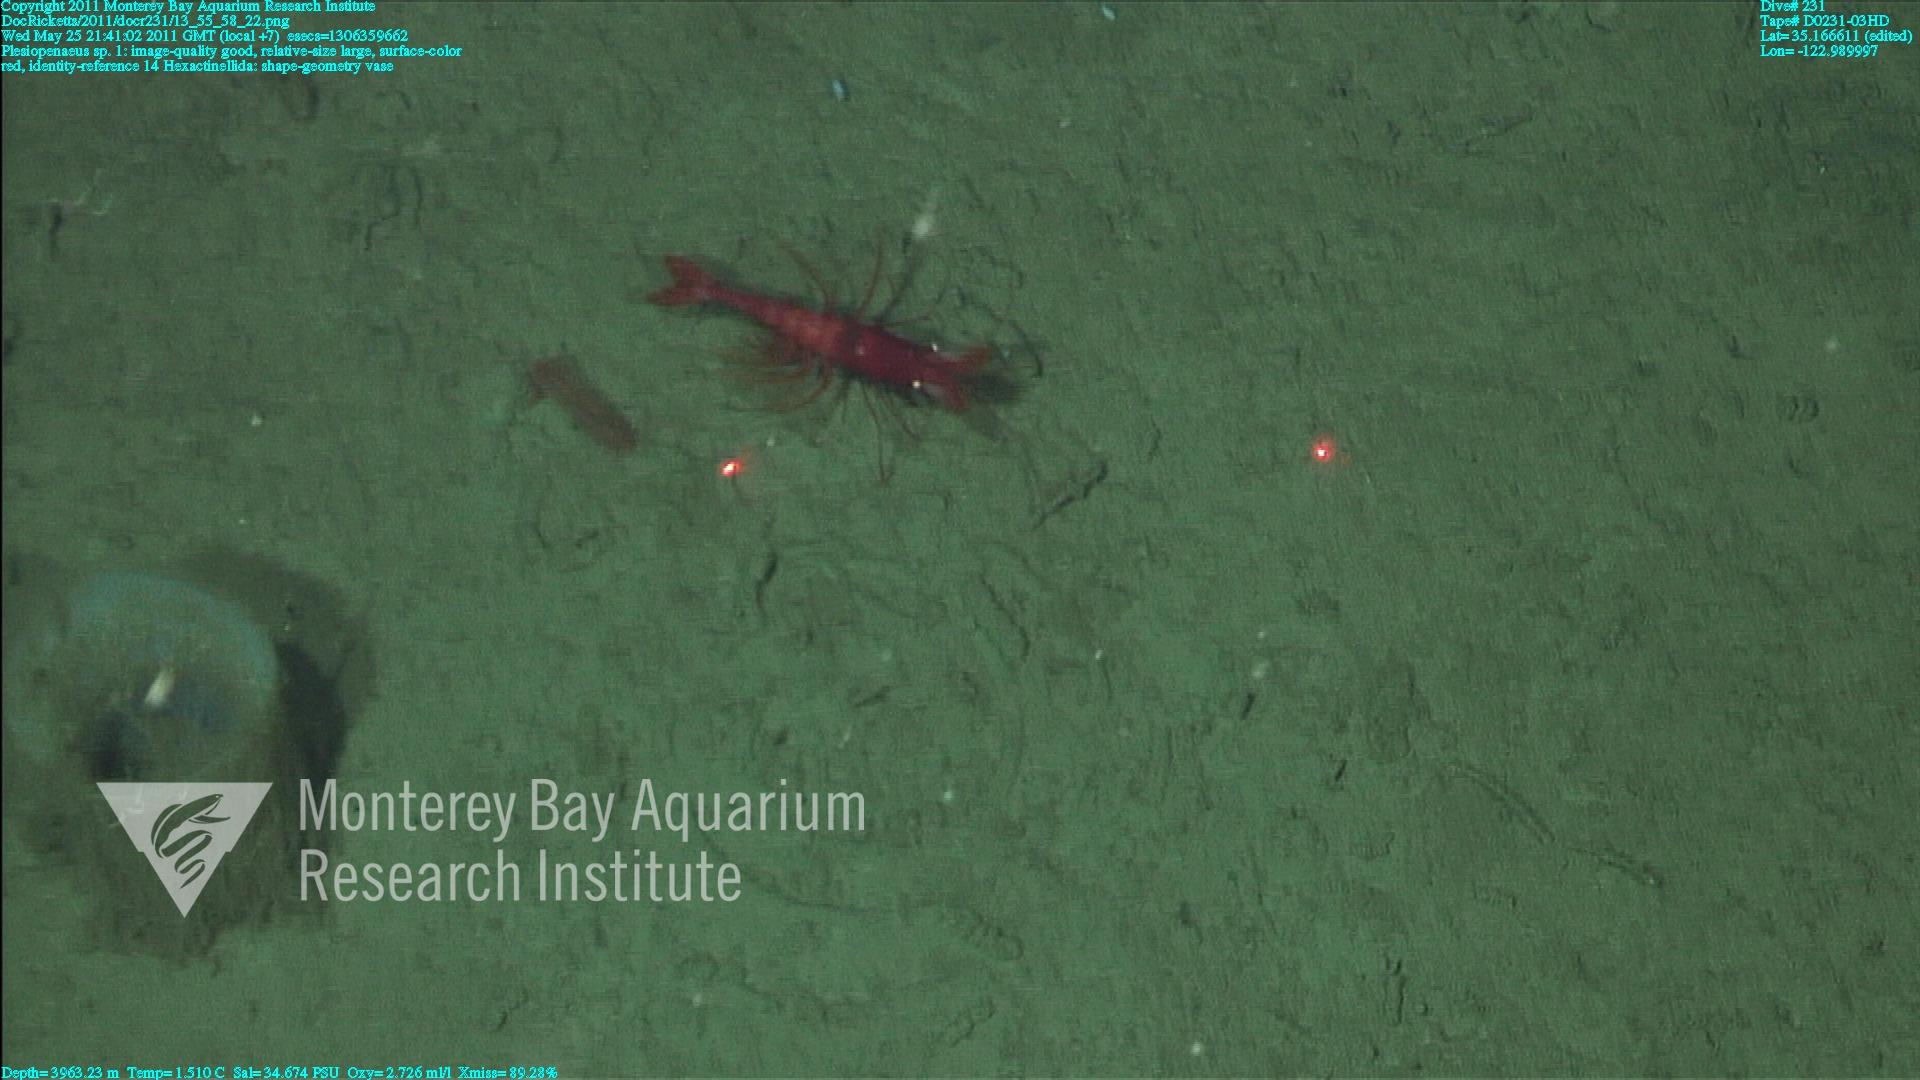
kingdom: Animalia
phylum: Porifera
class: Hexactinellida
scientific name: Hexactinellida
